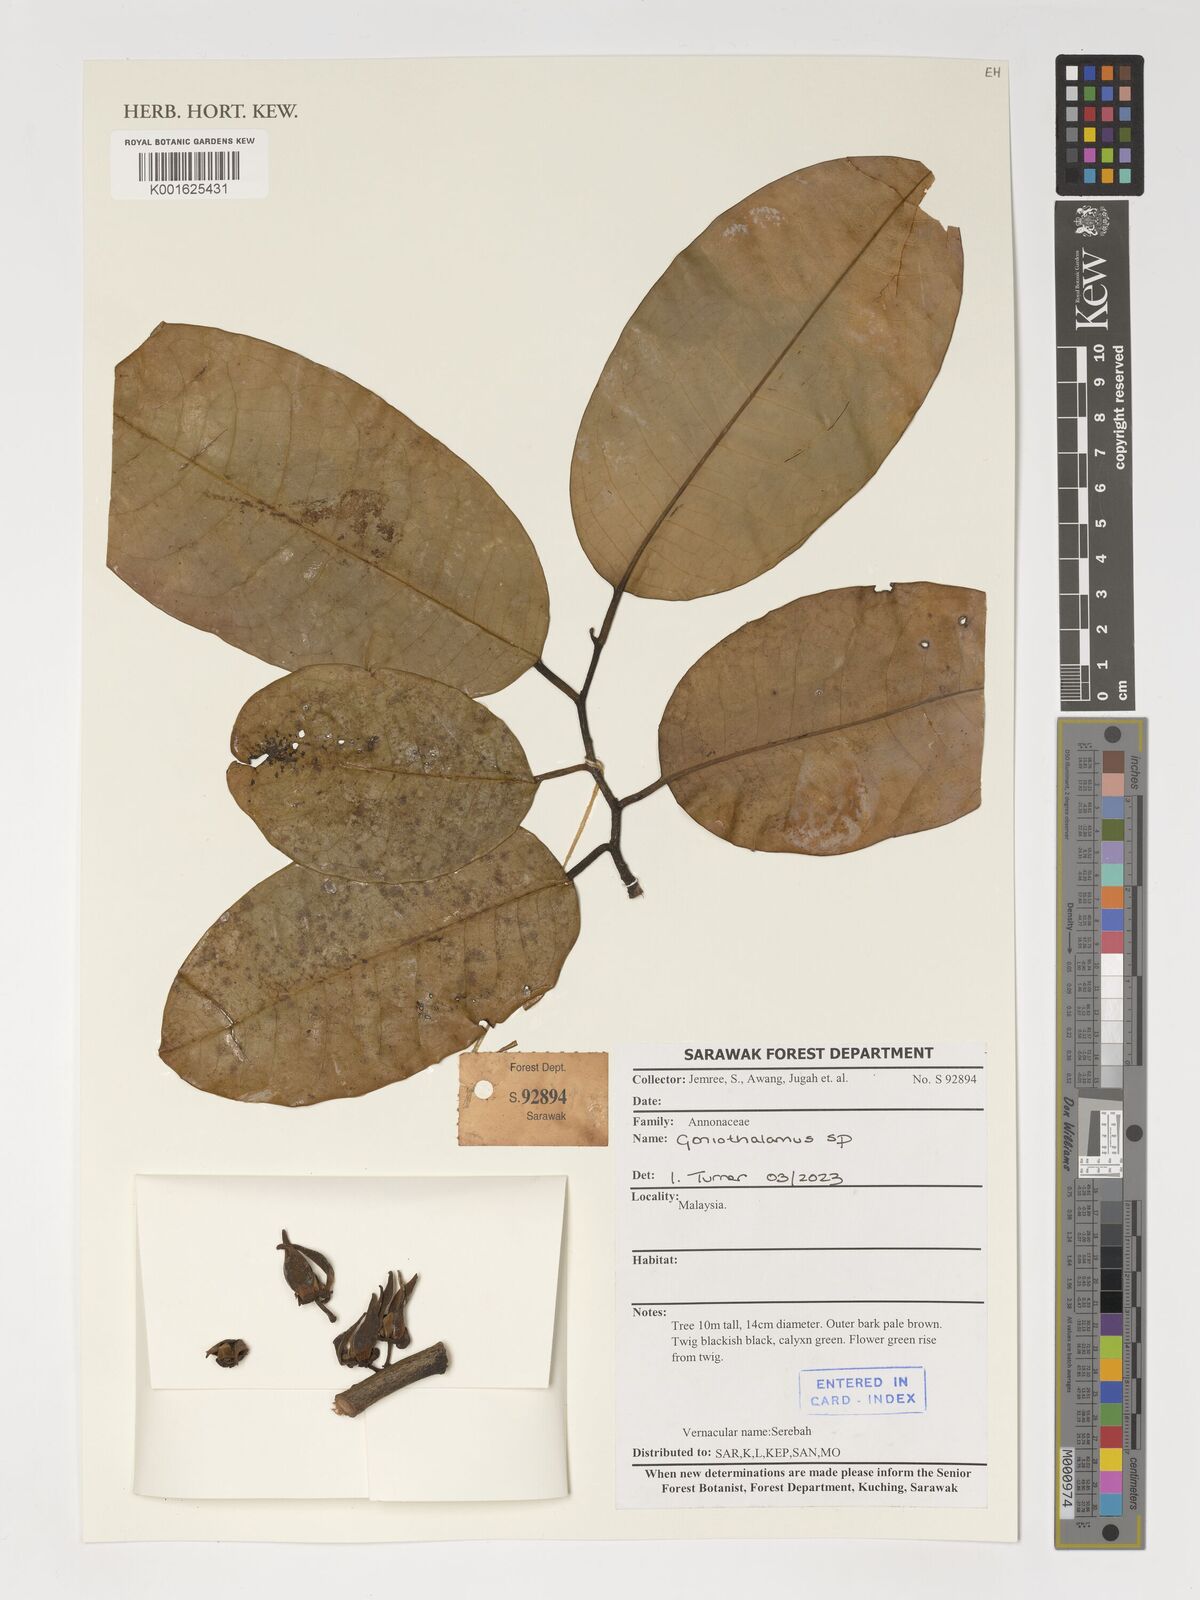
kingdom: Plantae
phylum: Tracheophyta
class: Magnoliopsida
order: Magnoliales
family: Annonaceae
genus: Goniothalamus
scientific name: Goniothalamus
